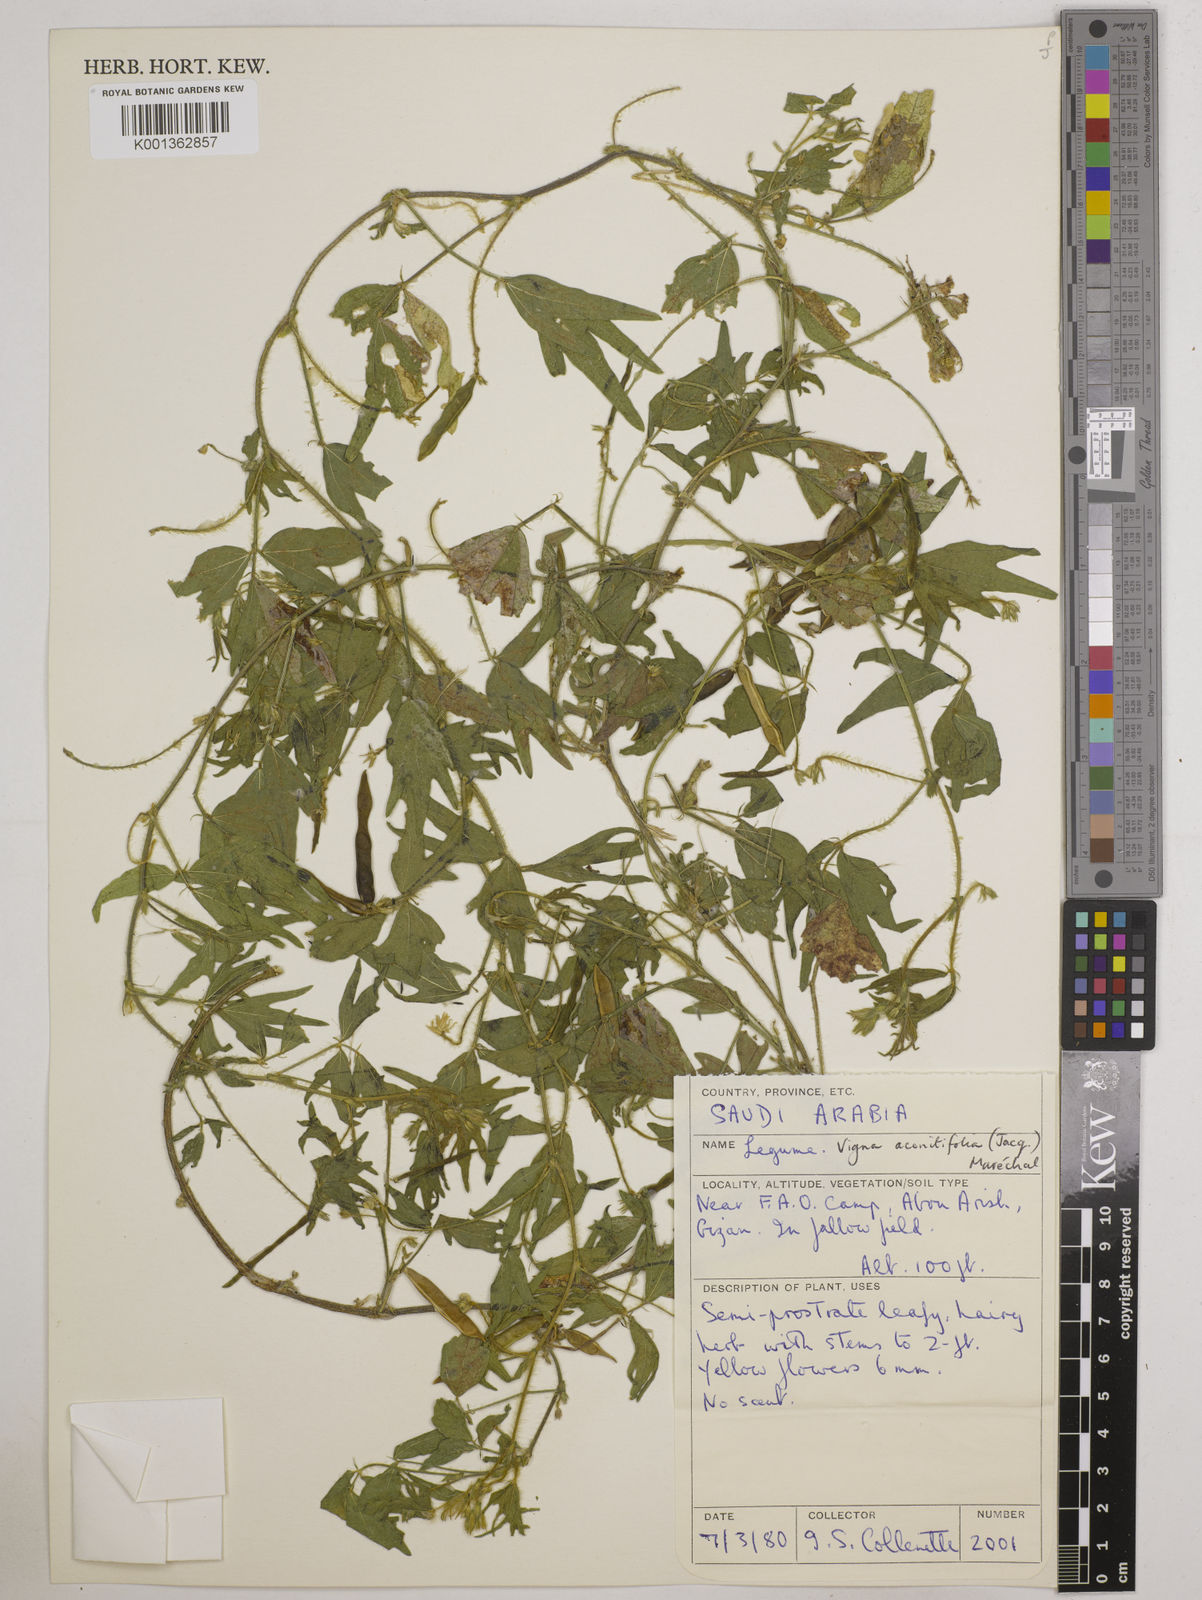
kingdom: Plantae
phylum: Tracheophyta
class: Magnoliopsida
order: Fabales
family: Fabaceae
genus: Vigna
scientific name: Vigna aconitifolia
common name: Dew bean
